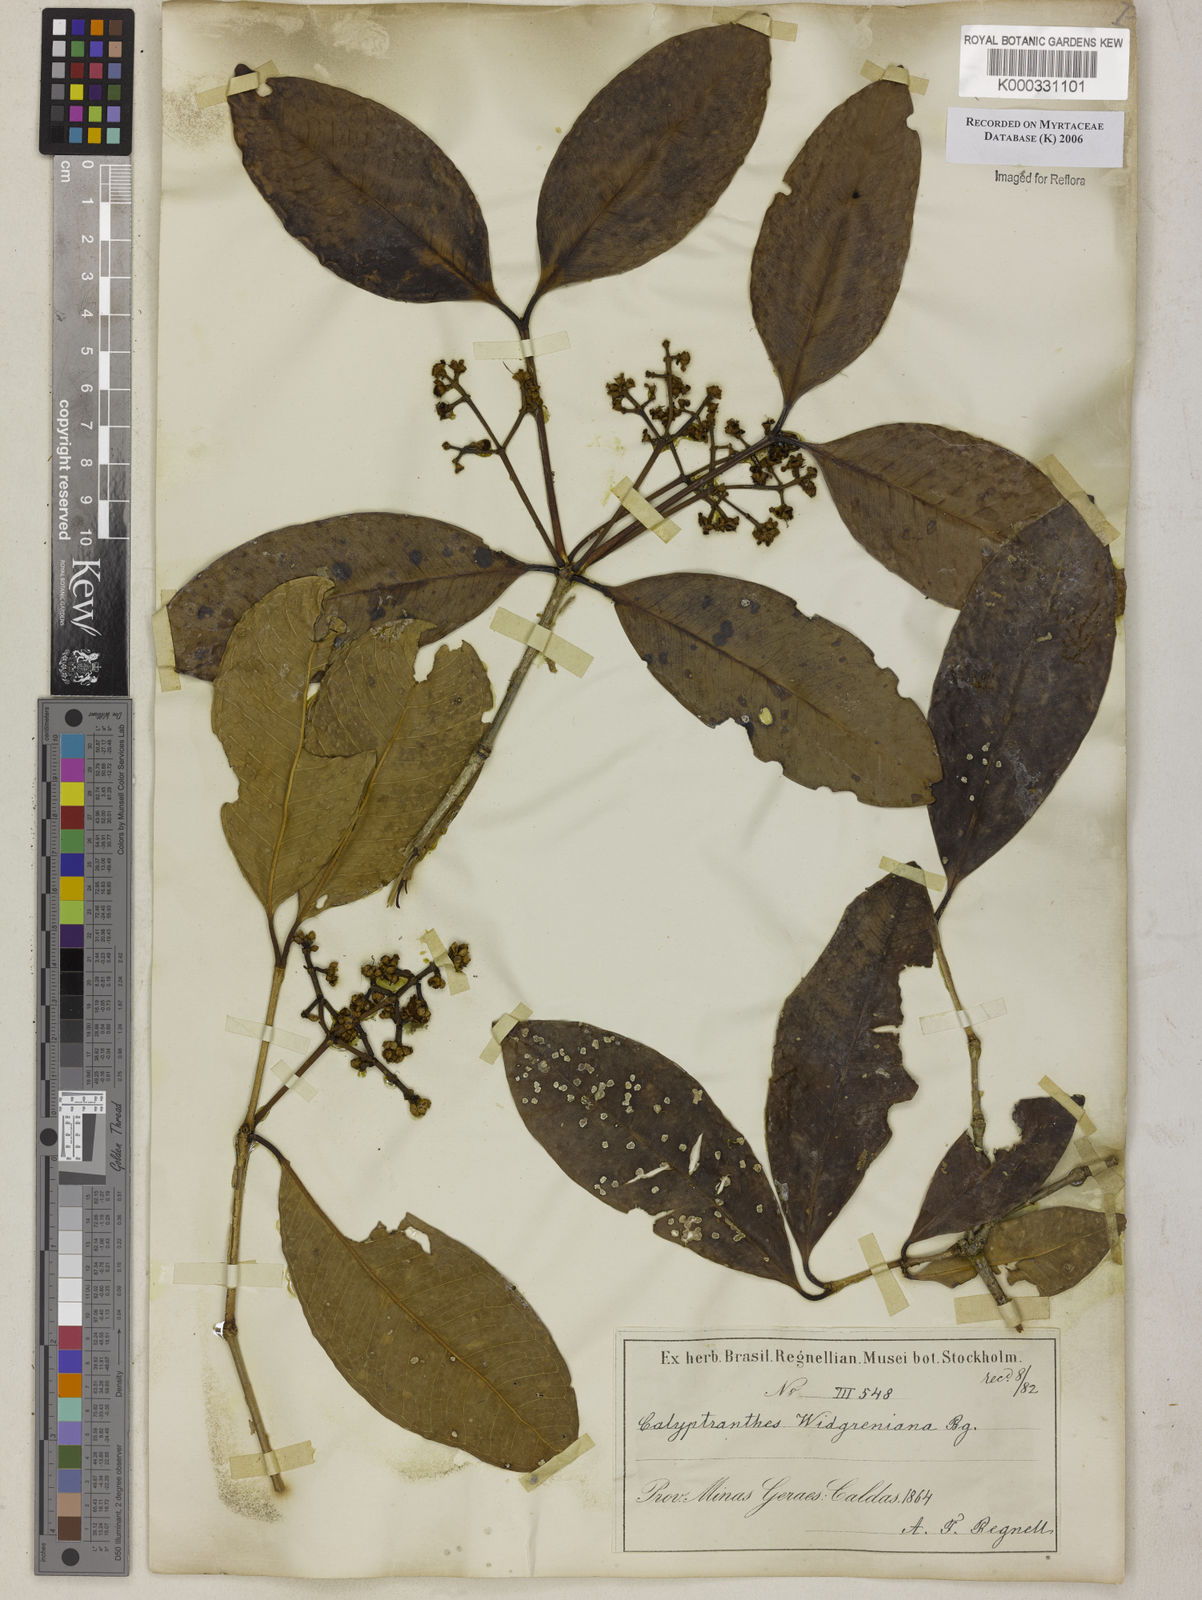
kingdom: Plantae
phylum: Tracheophyta
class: Magnoliopsida
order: Myrtales
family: Myrtaceae
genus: Calyptranthes
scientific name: Calyptranthes widgreniana
